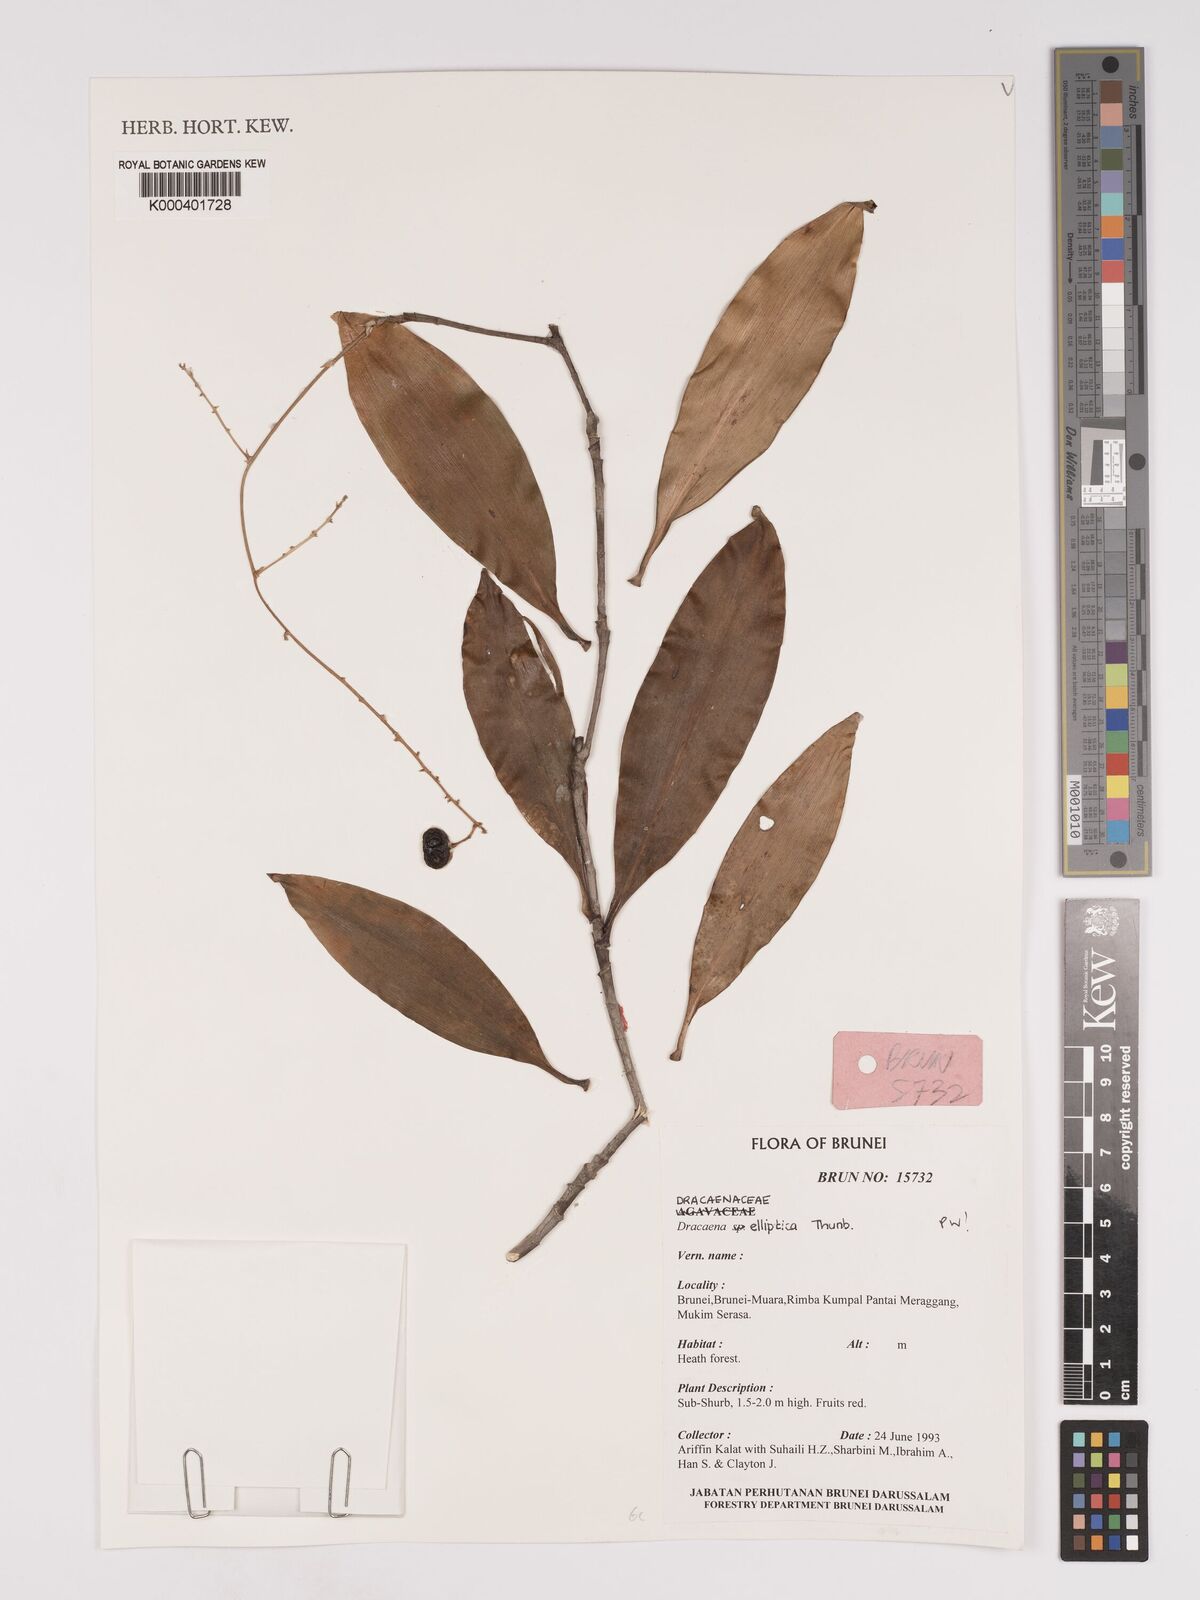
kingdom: Plantae
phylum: Tracheophyta
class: Liliopsida
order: Asparagales
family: Asparagaceae
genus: Dracaena
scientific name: Dracaena elliptica
